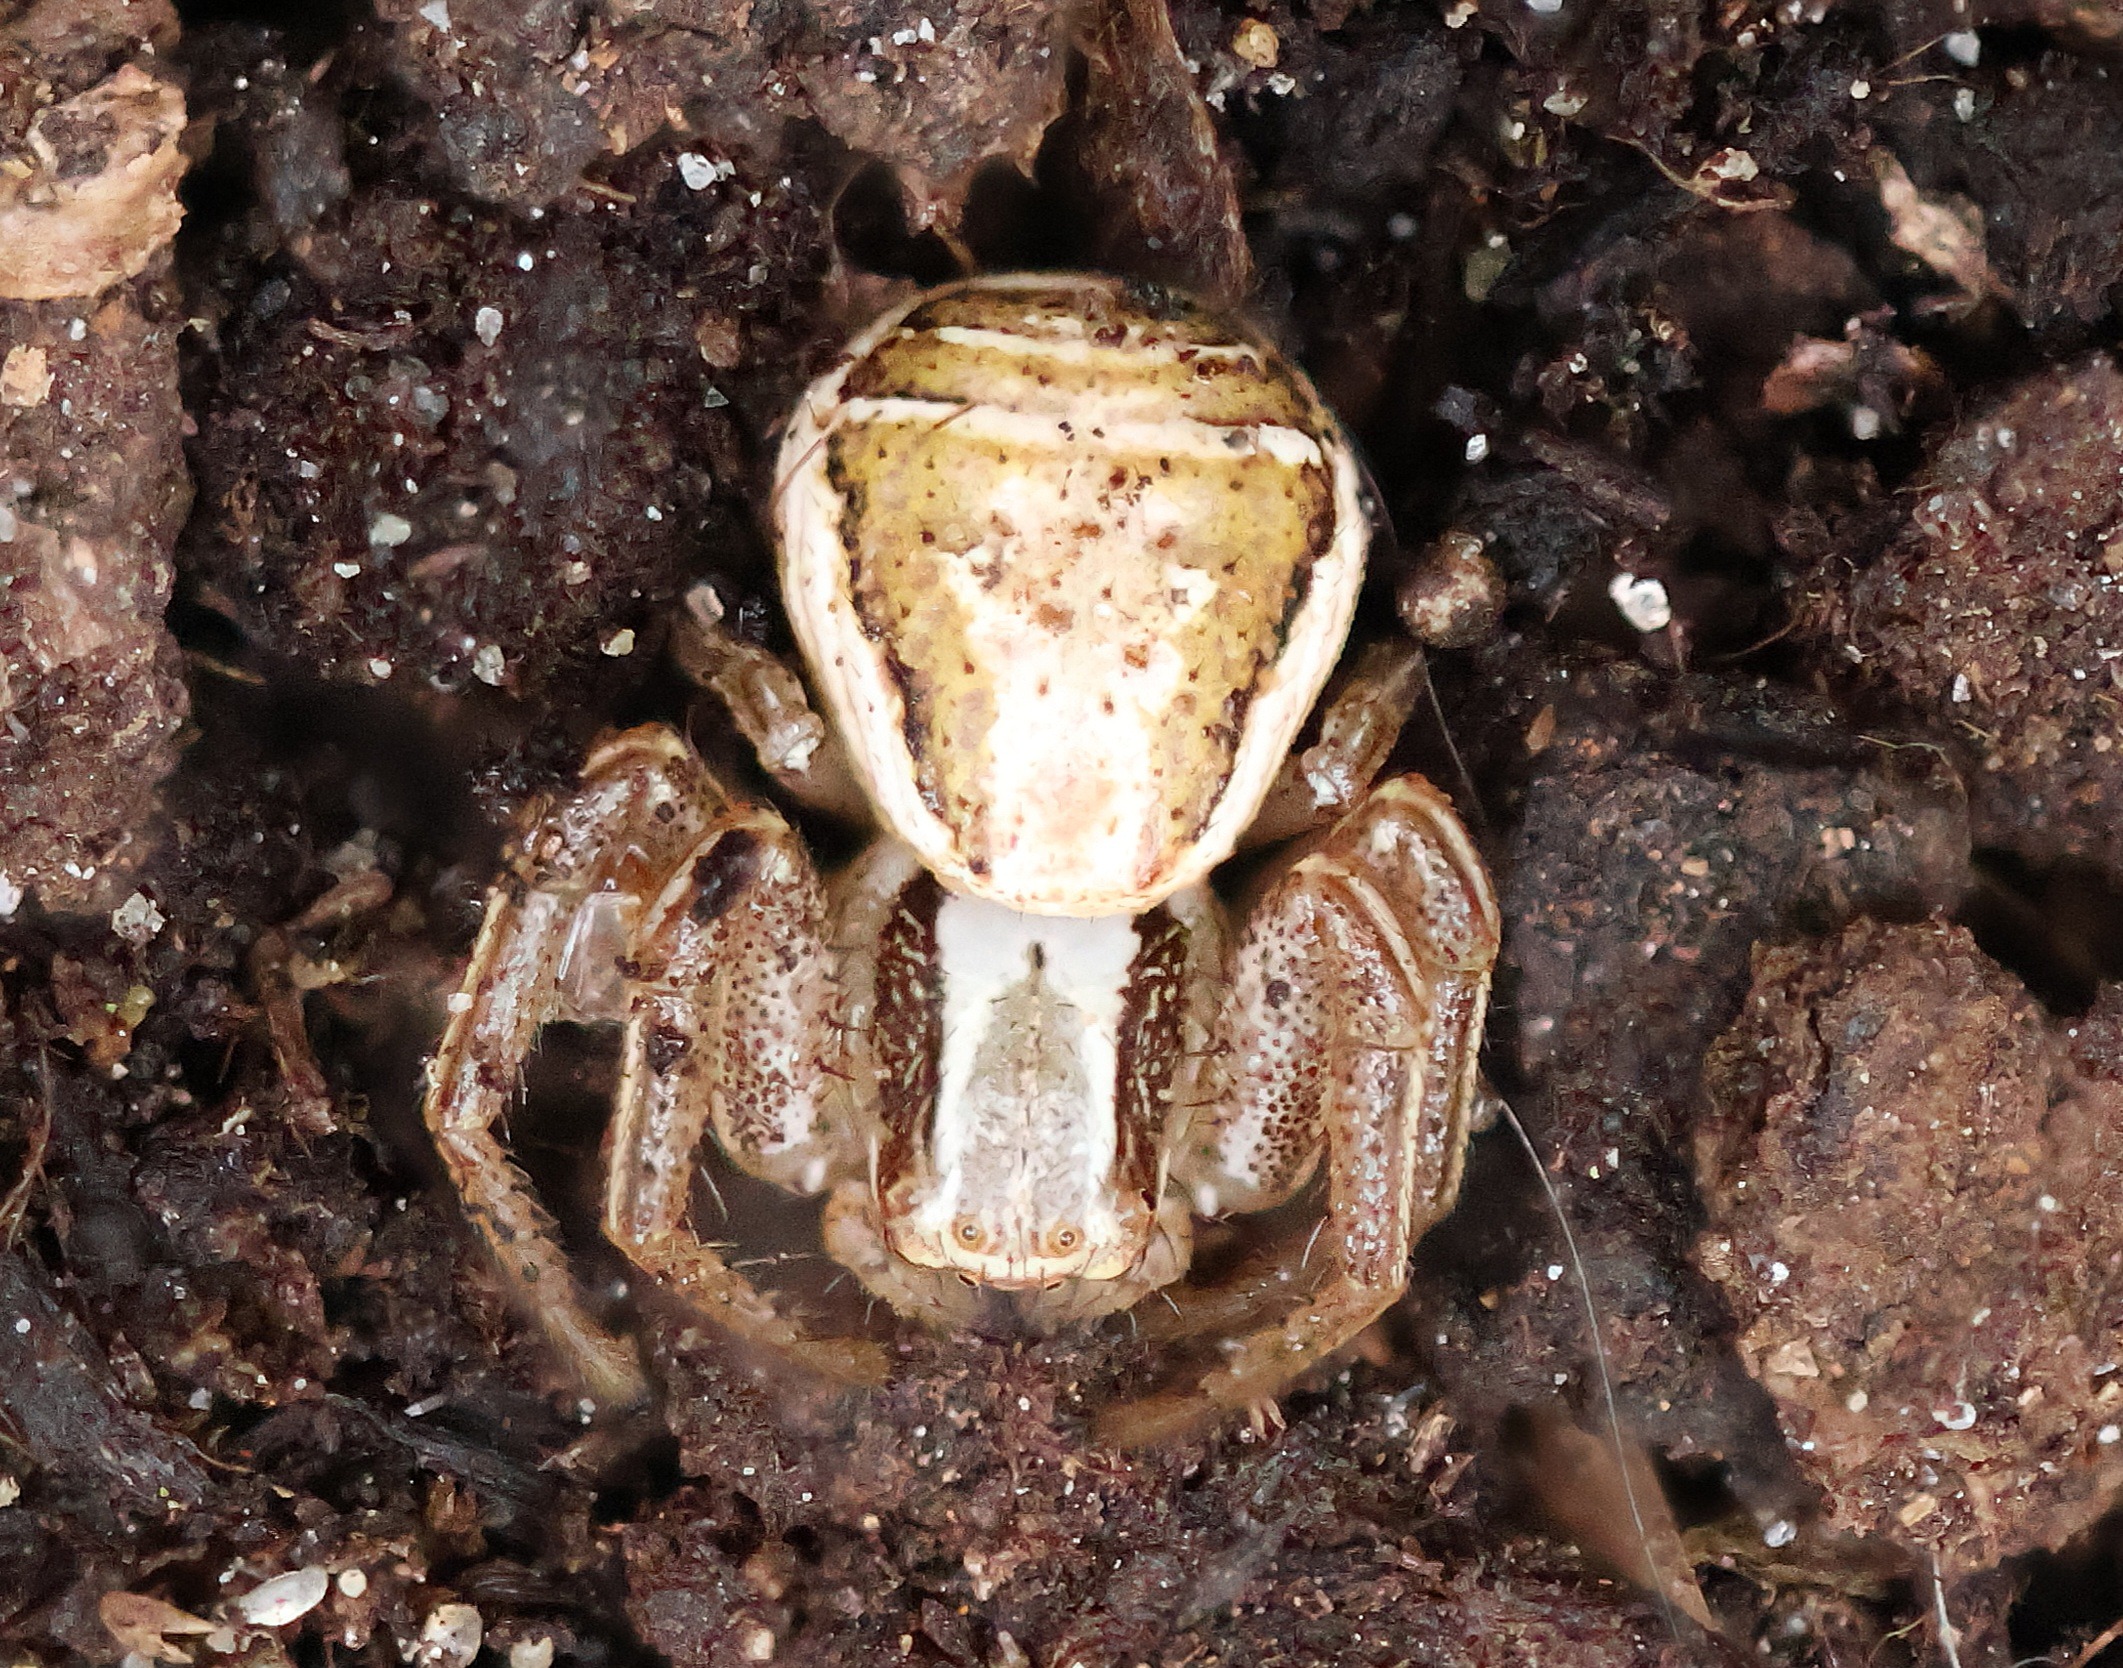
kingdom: Animalia
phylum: Arthropoda
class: Arachnida
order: Araneae
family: Thomisidae
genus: Xysticus
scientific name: Xysticus ulmi
